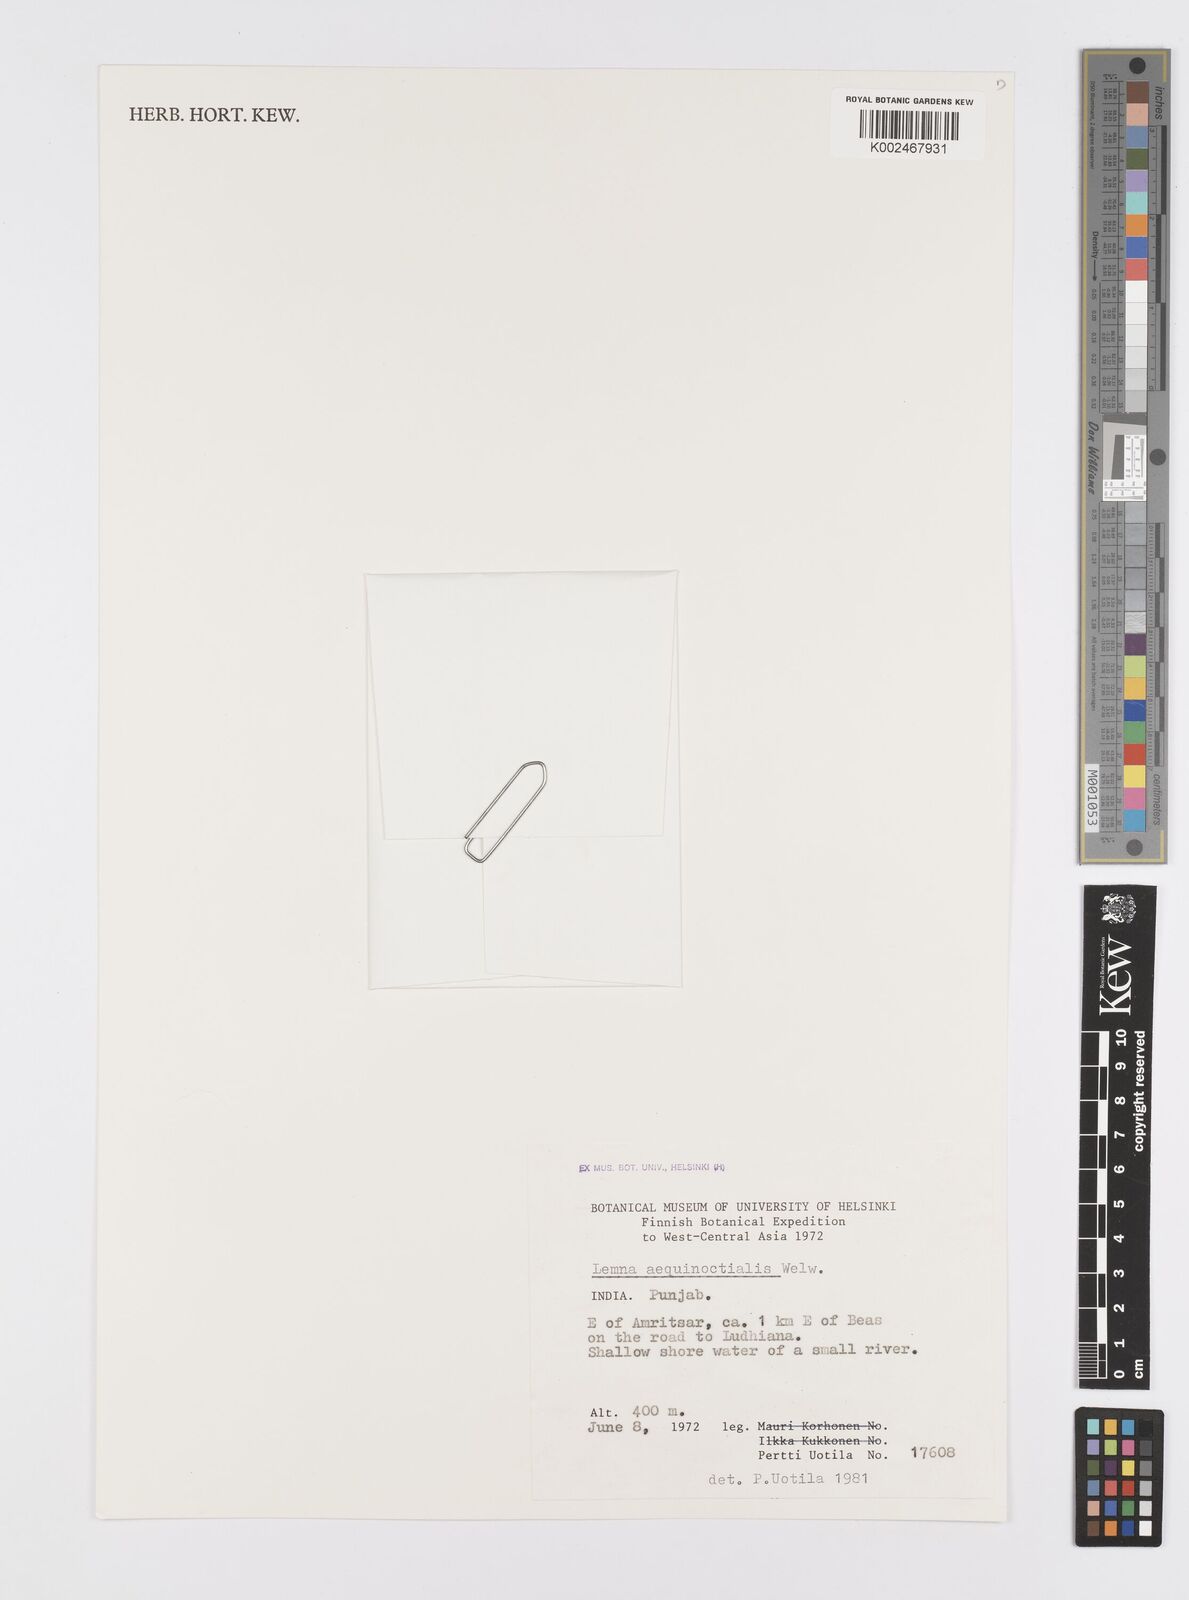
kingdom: Plantae
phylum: Tracheophyta
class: Liliopsida
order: Alismatales
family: Araceae
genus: Lemna
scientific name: Lemna aequinoctialis
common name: Duckweed
